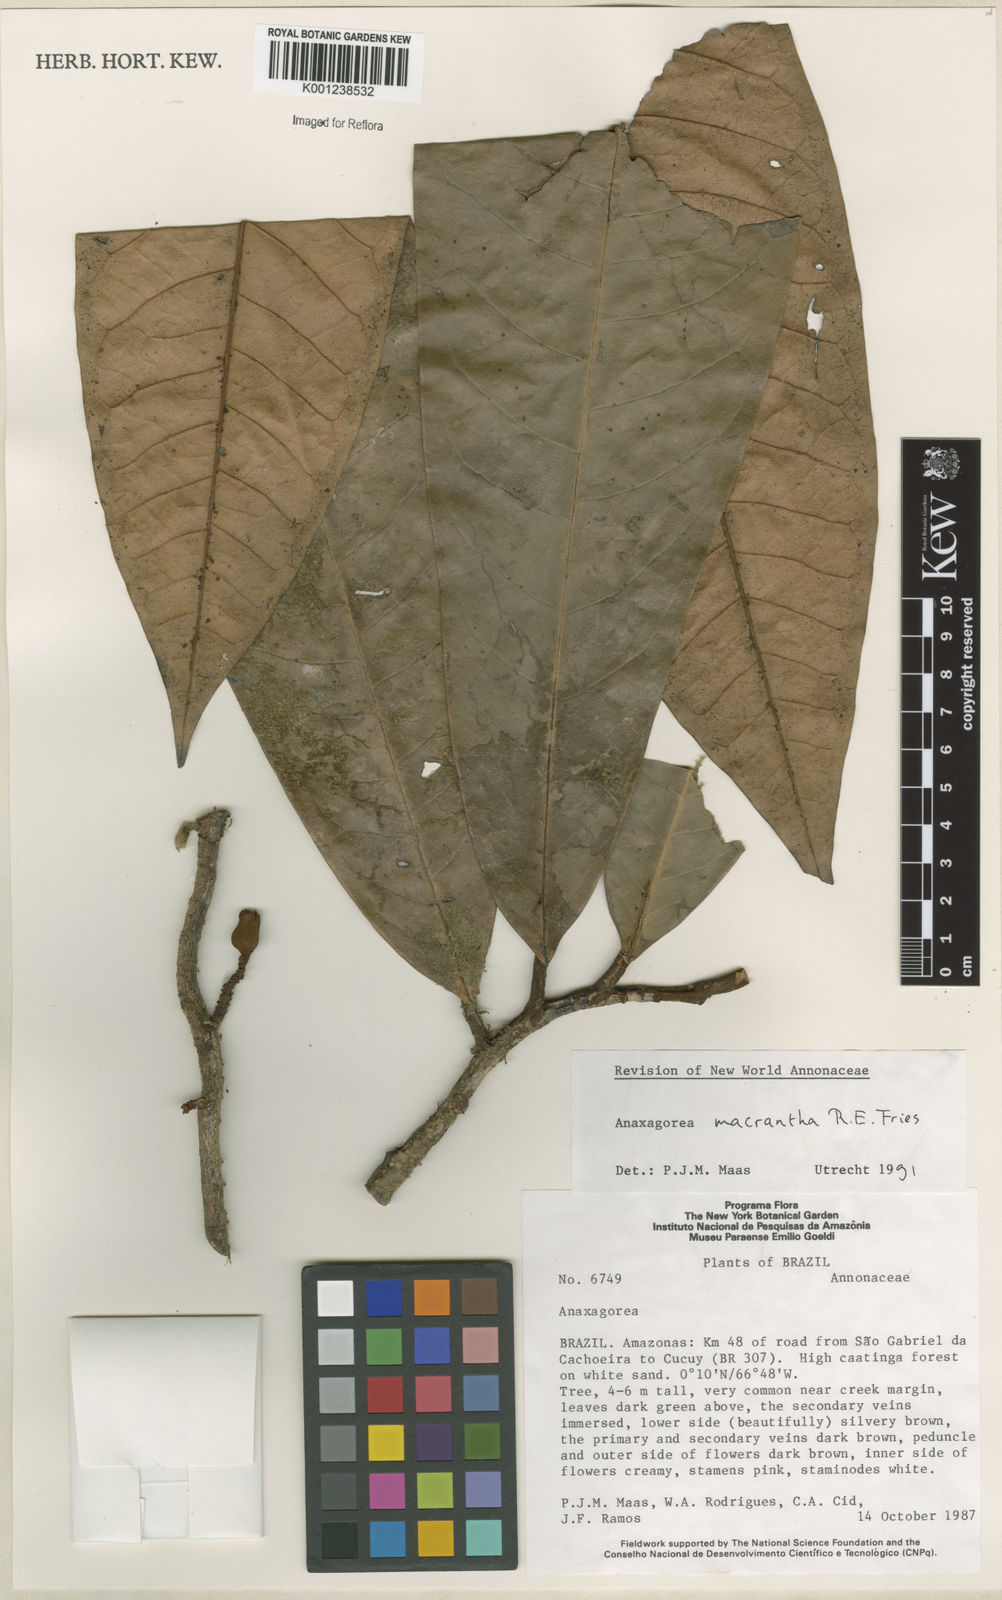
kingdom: Plantae
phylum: Tracheophyta
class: Magnoliopsida
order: Magnoliales
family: Annonaceae
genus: Anaxagorea
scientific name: Anaxagorea macrantha
